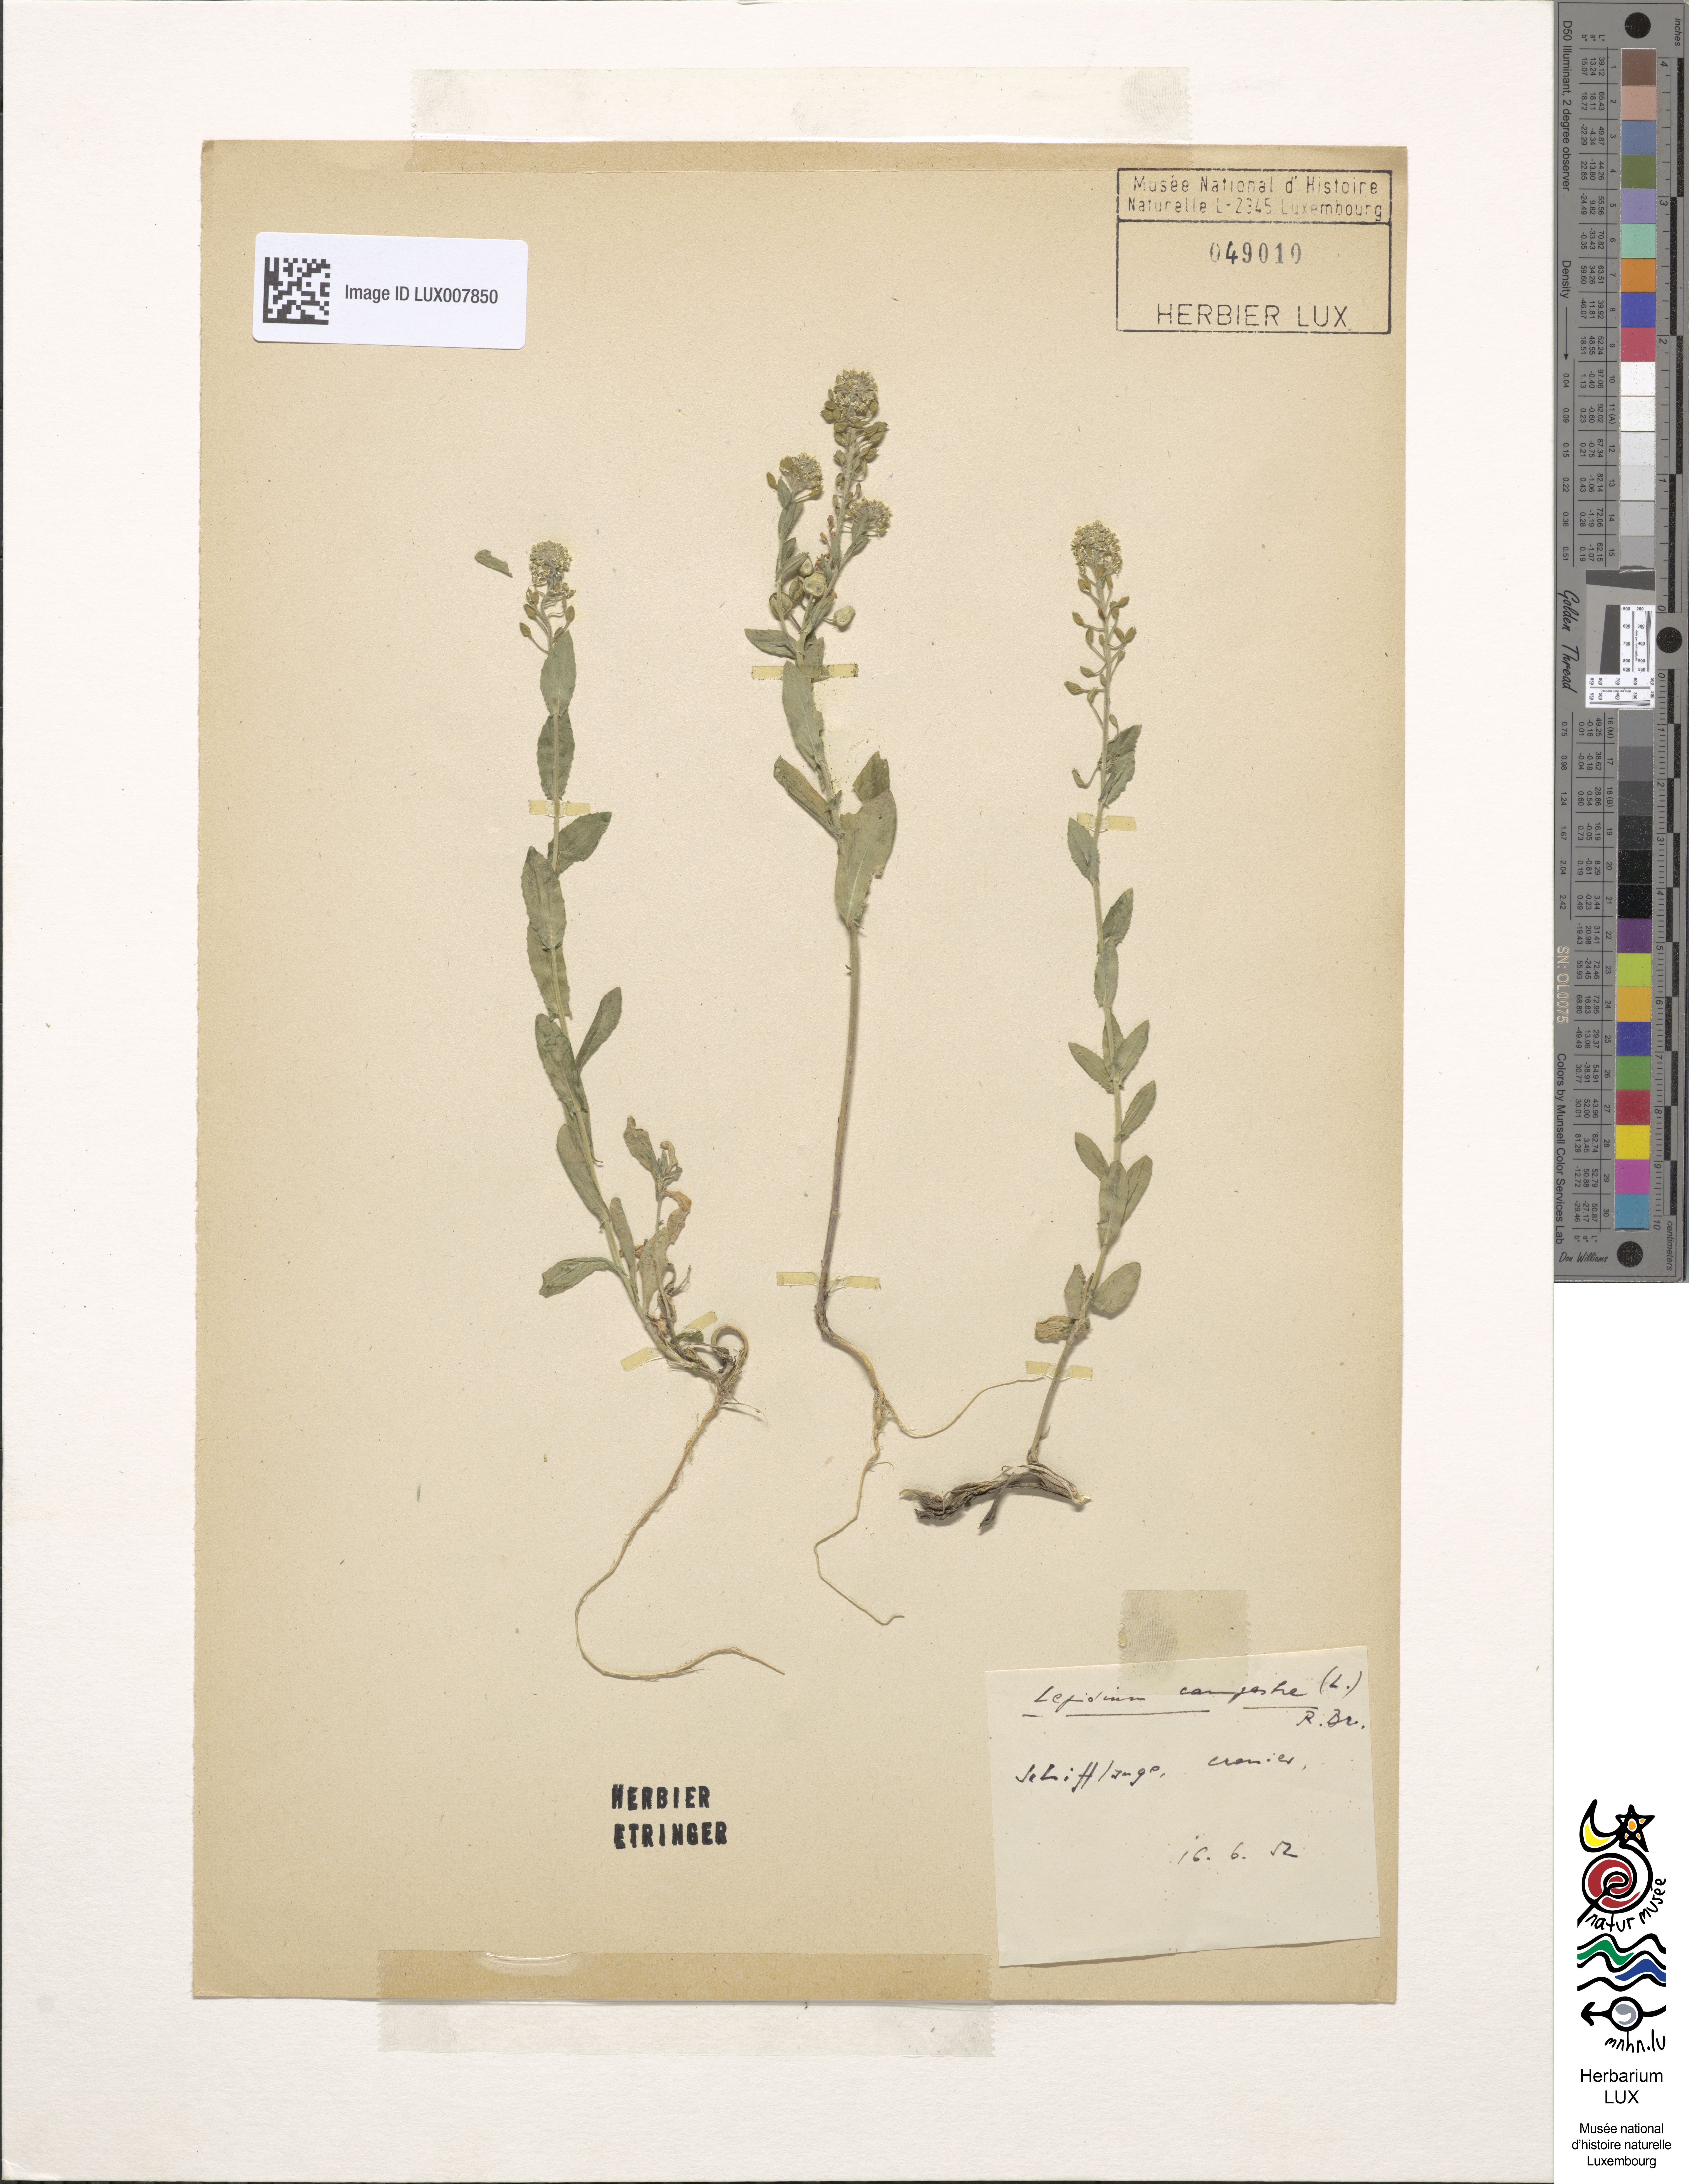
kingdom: Plantae
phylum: Tracheophyta
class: Magnoliopsida
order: Brassicales
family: Brassicaceae
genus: Lepidium
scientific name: Lepidium campestre
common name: Field pepperwort
